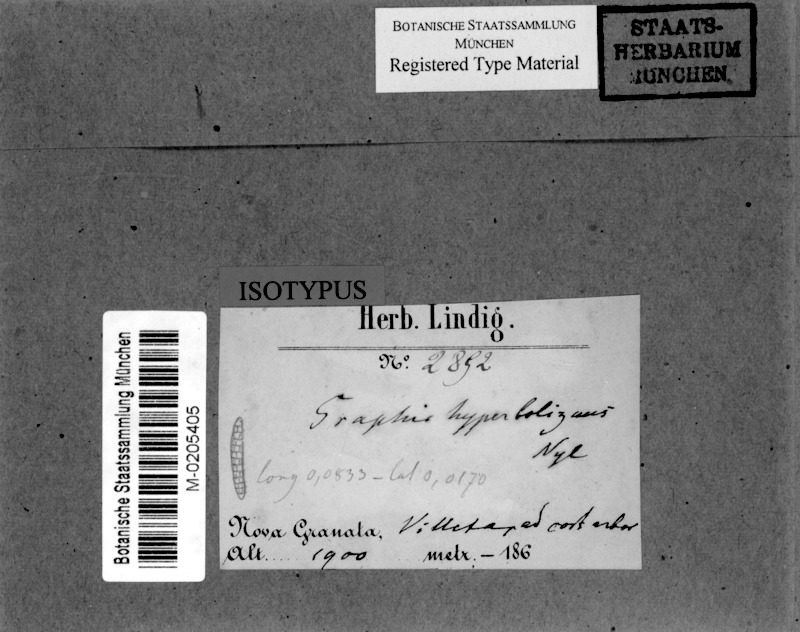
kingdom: Fungi
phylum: Ascomycota
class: Lecanoromycetes
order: Ostropales
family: Graphidaceae
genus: Allographa
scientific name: Allographa acharii
